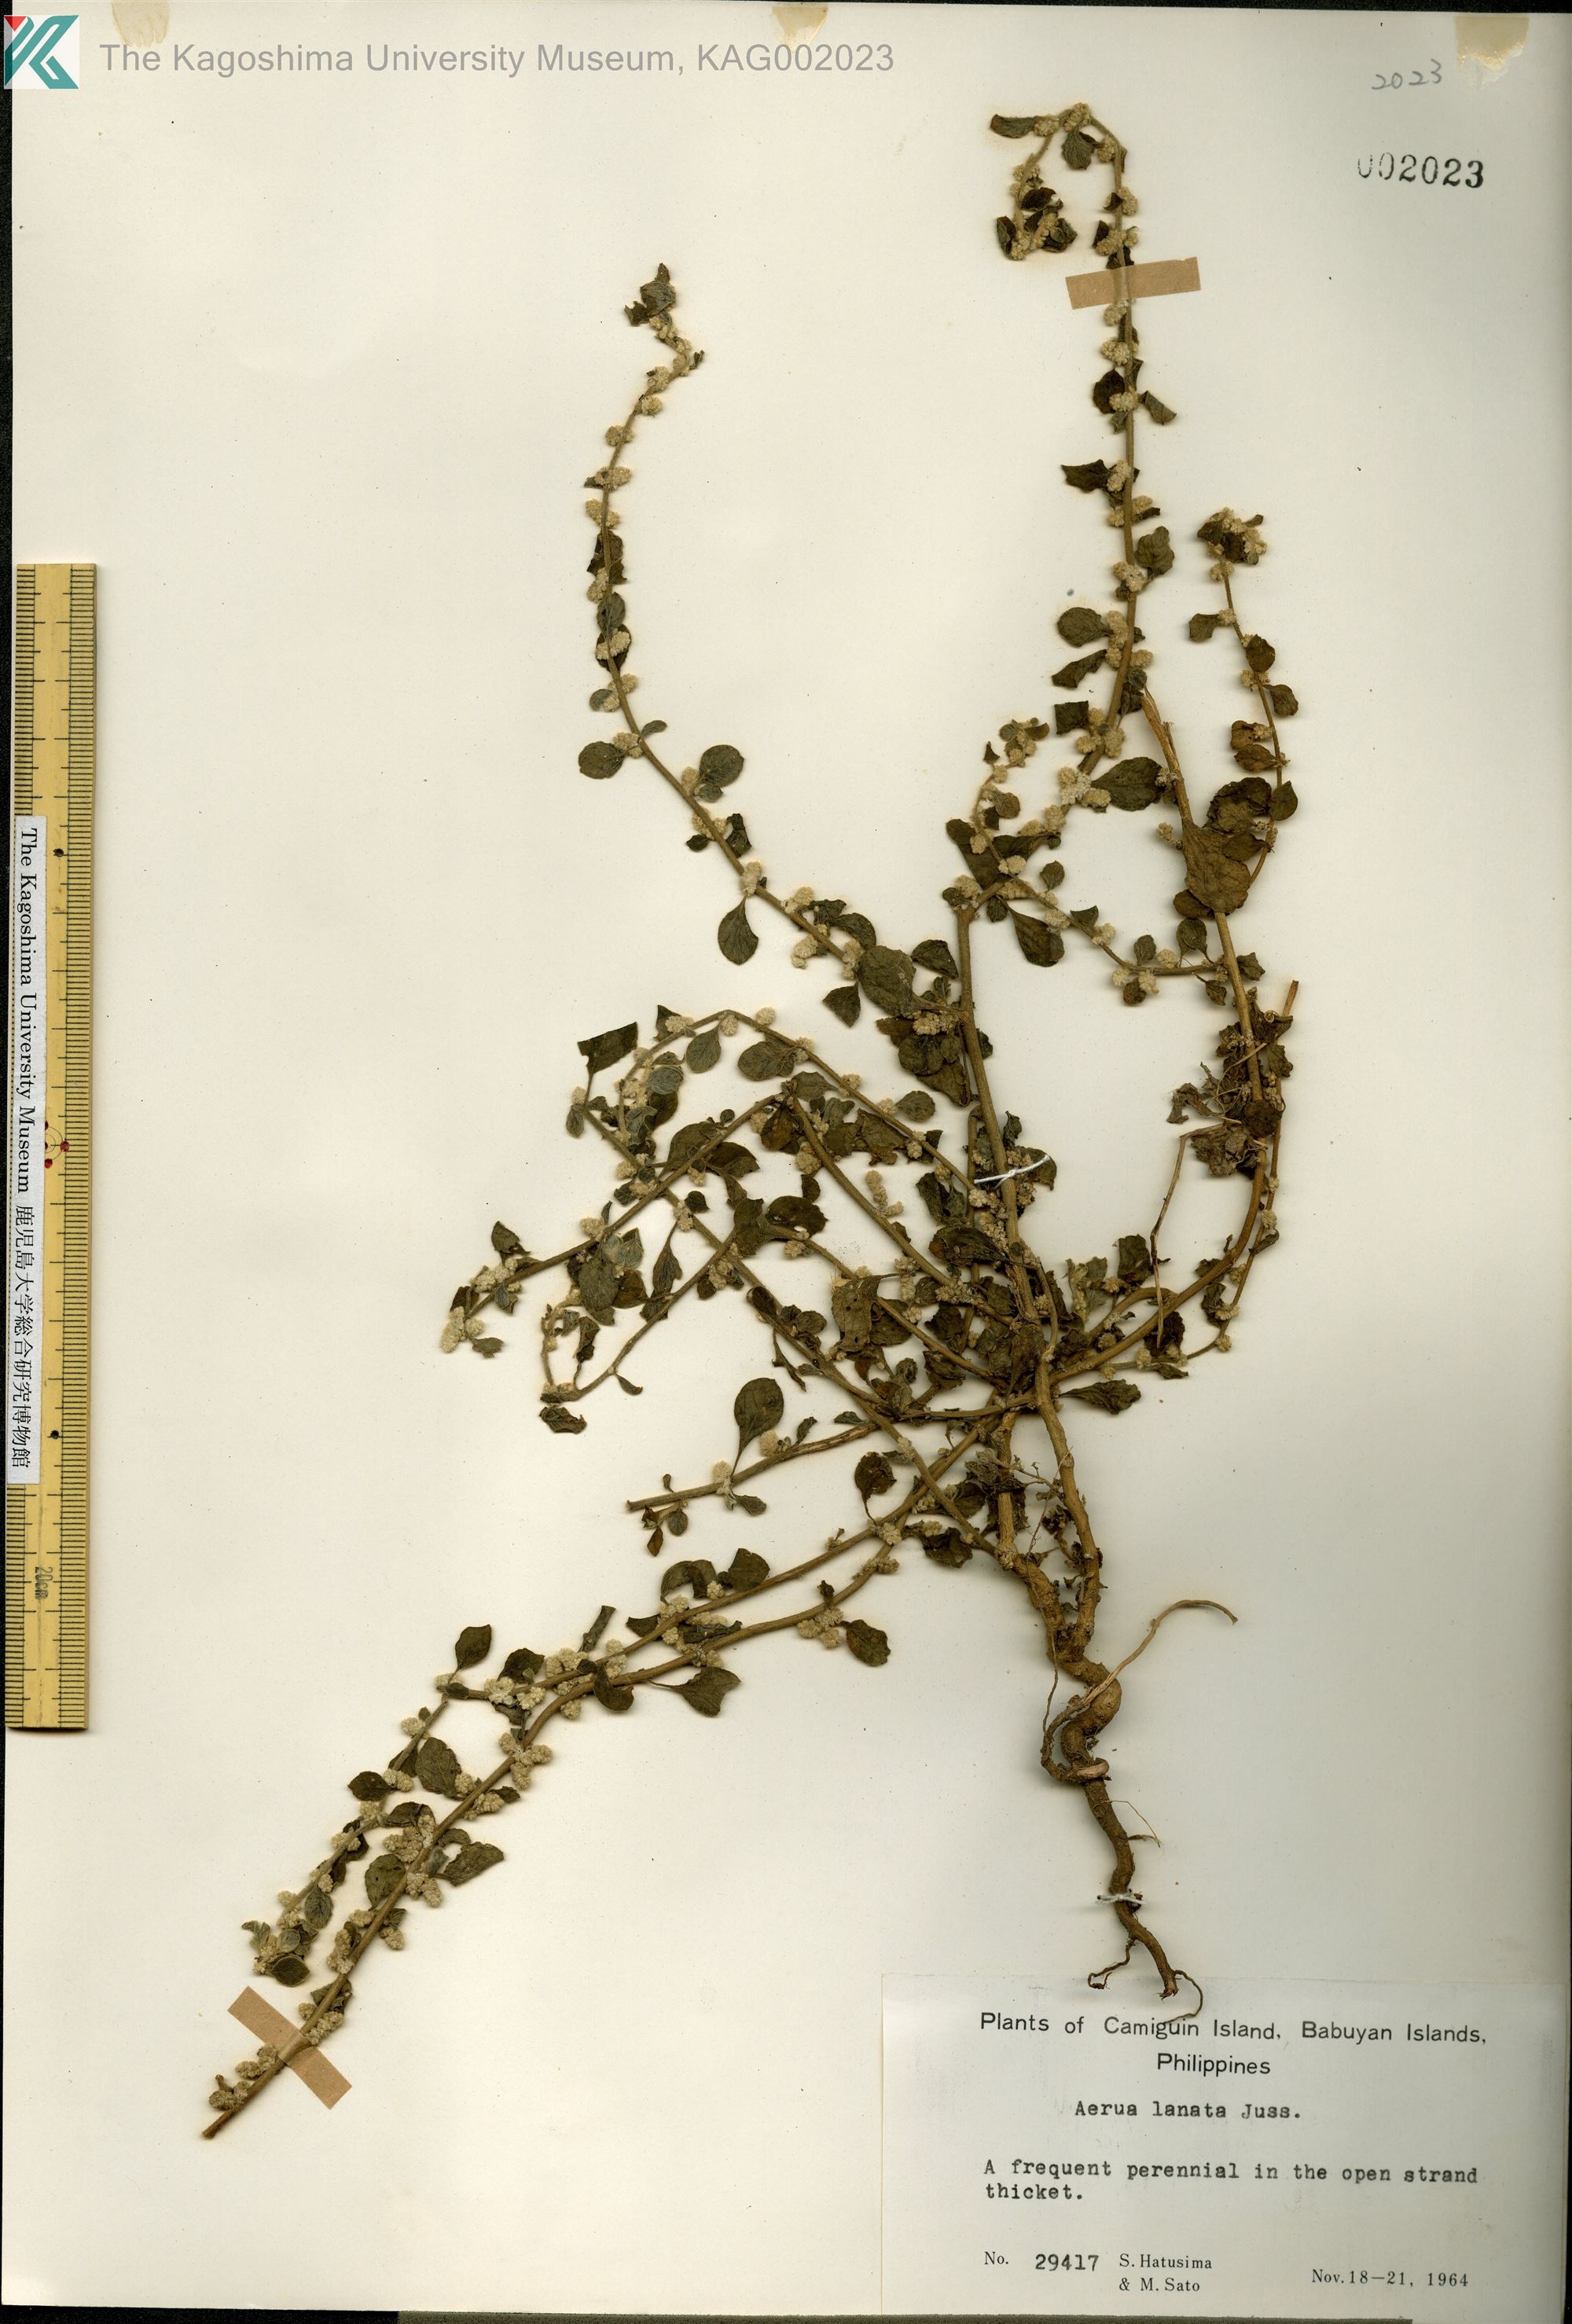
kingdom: Plantae
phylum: Tracheophyta
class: Magnoliopsida
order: Caryophyllales
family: Amaranthaceae
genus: Ouret
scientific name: Ouret lanata
